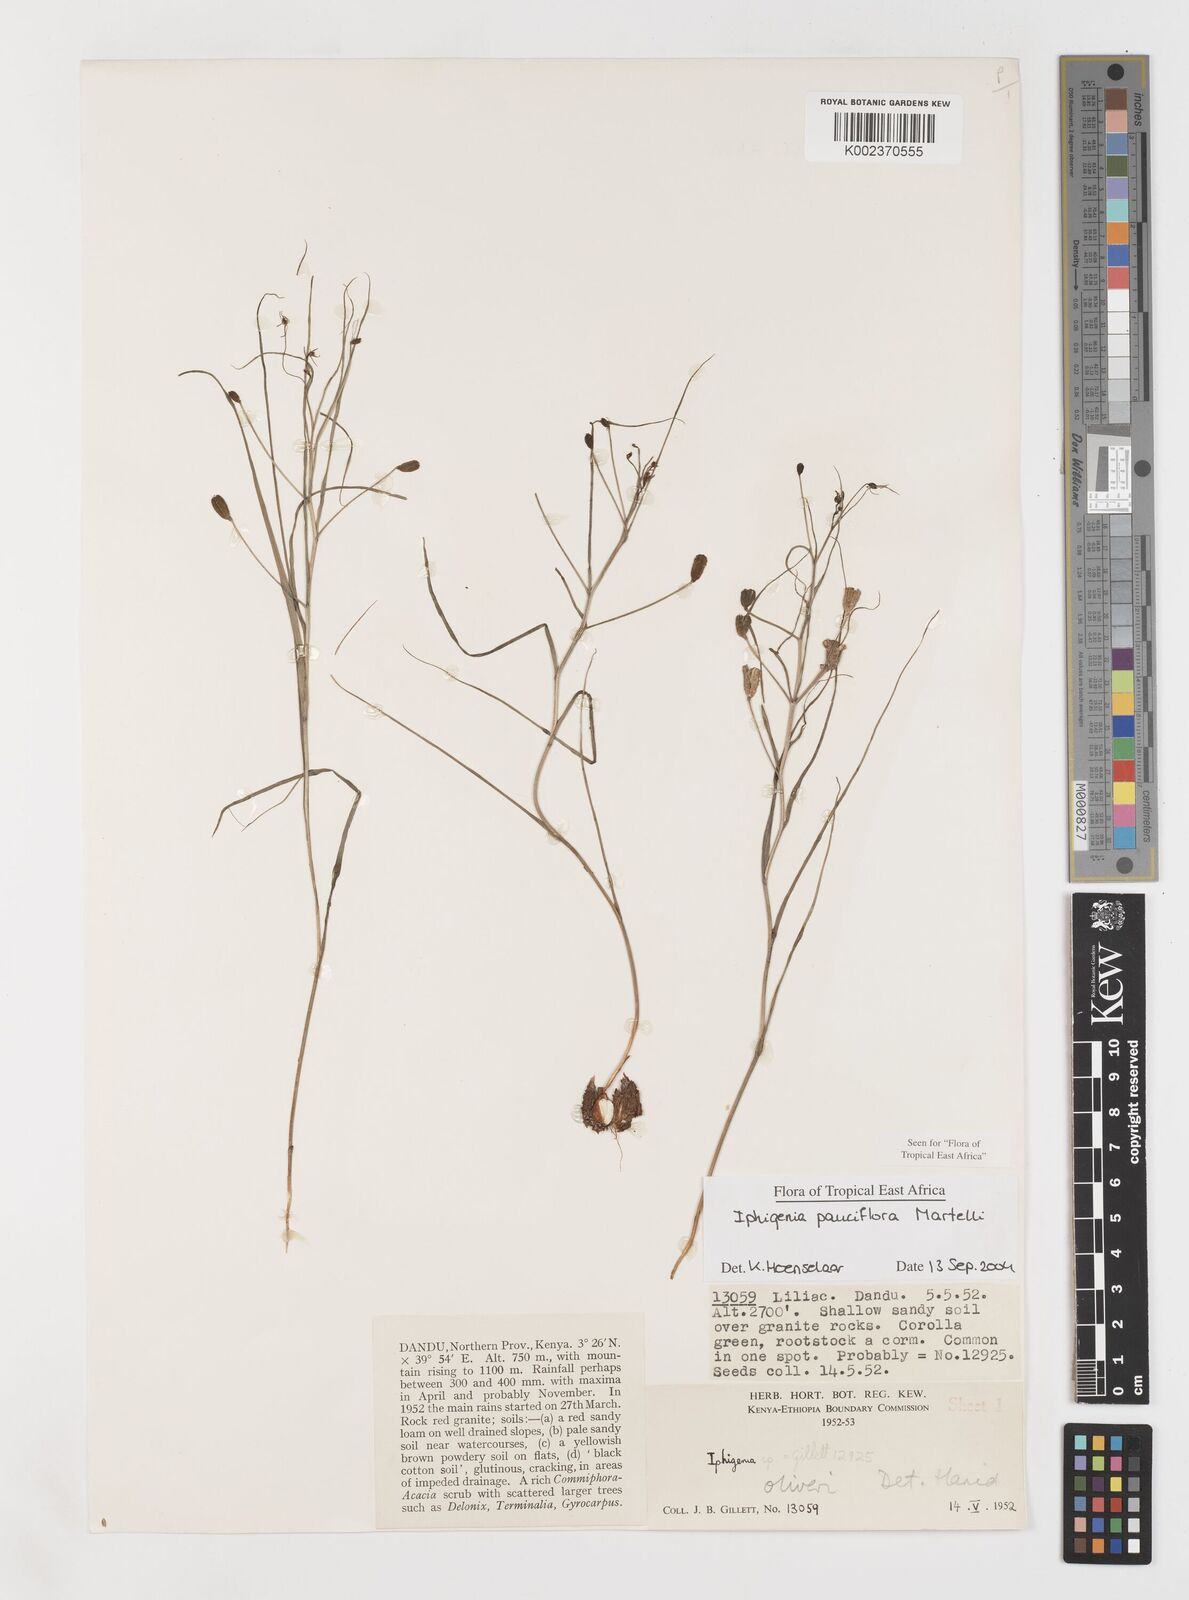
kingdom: Plantae
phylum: Tracheophyta
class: Liliopsida
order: Liliales
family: Colchicaceae
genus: Iphigenia
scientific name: Iphigenia pauciflora
